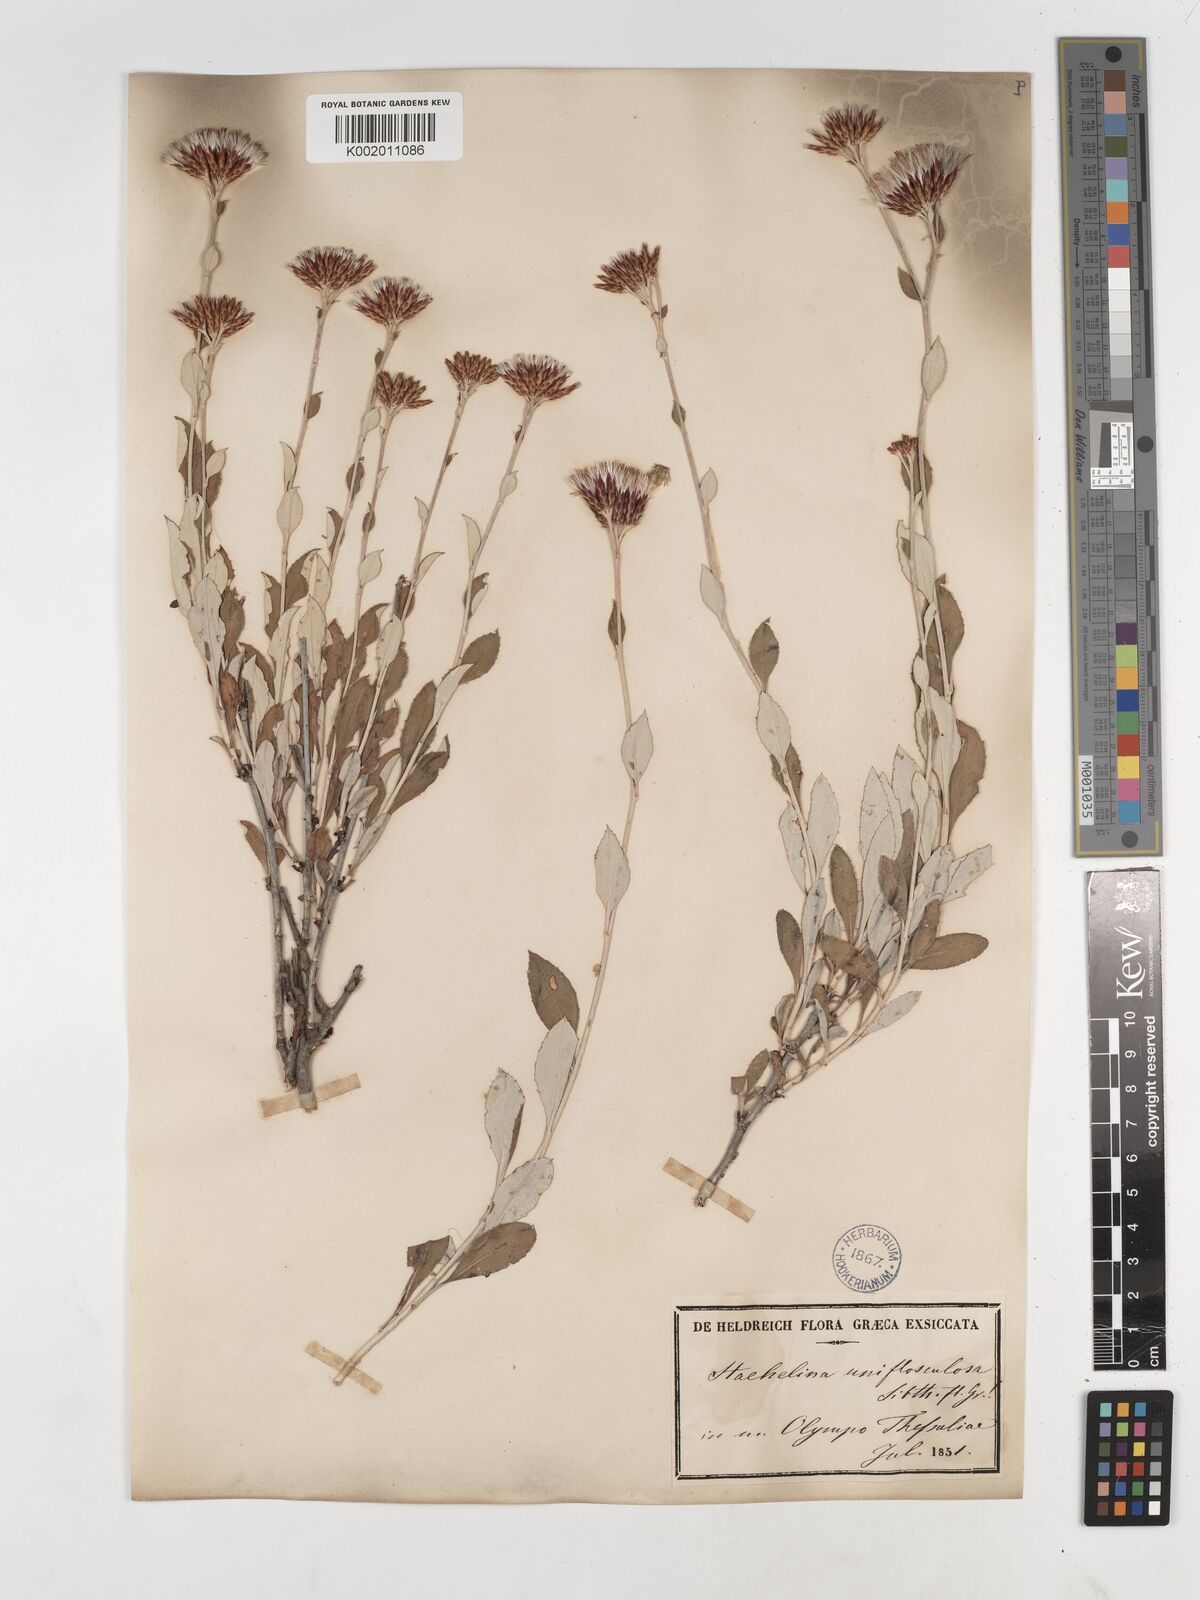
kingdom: Plantae
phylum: Tracheophyta
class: Magnoliopsida
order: Asterales
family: Asteraceae
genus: Staehelina
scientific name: Staehelina uniflosculosa
